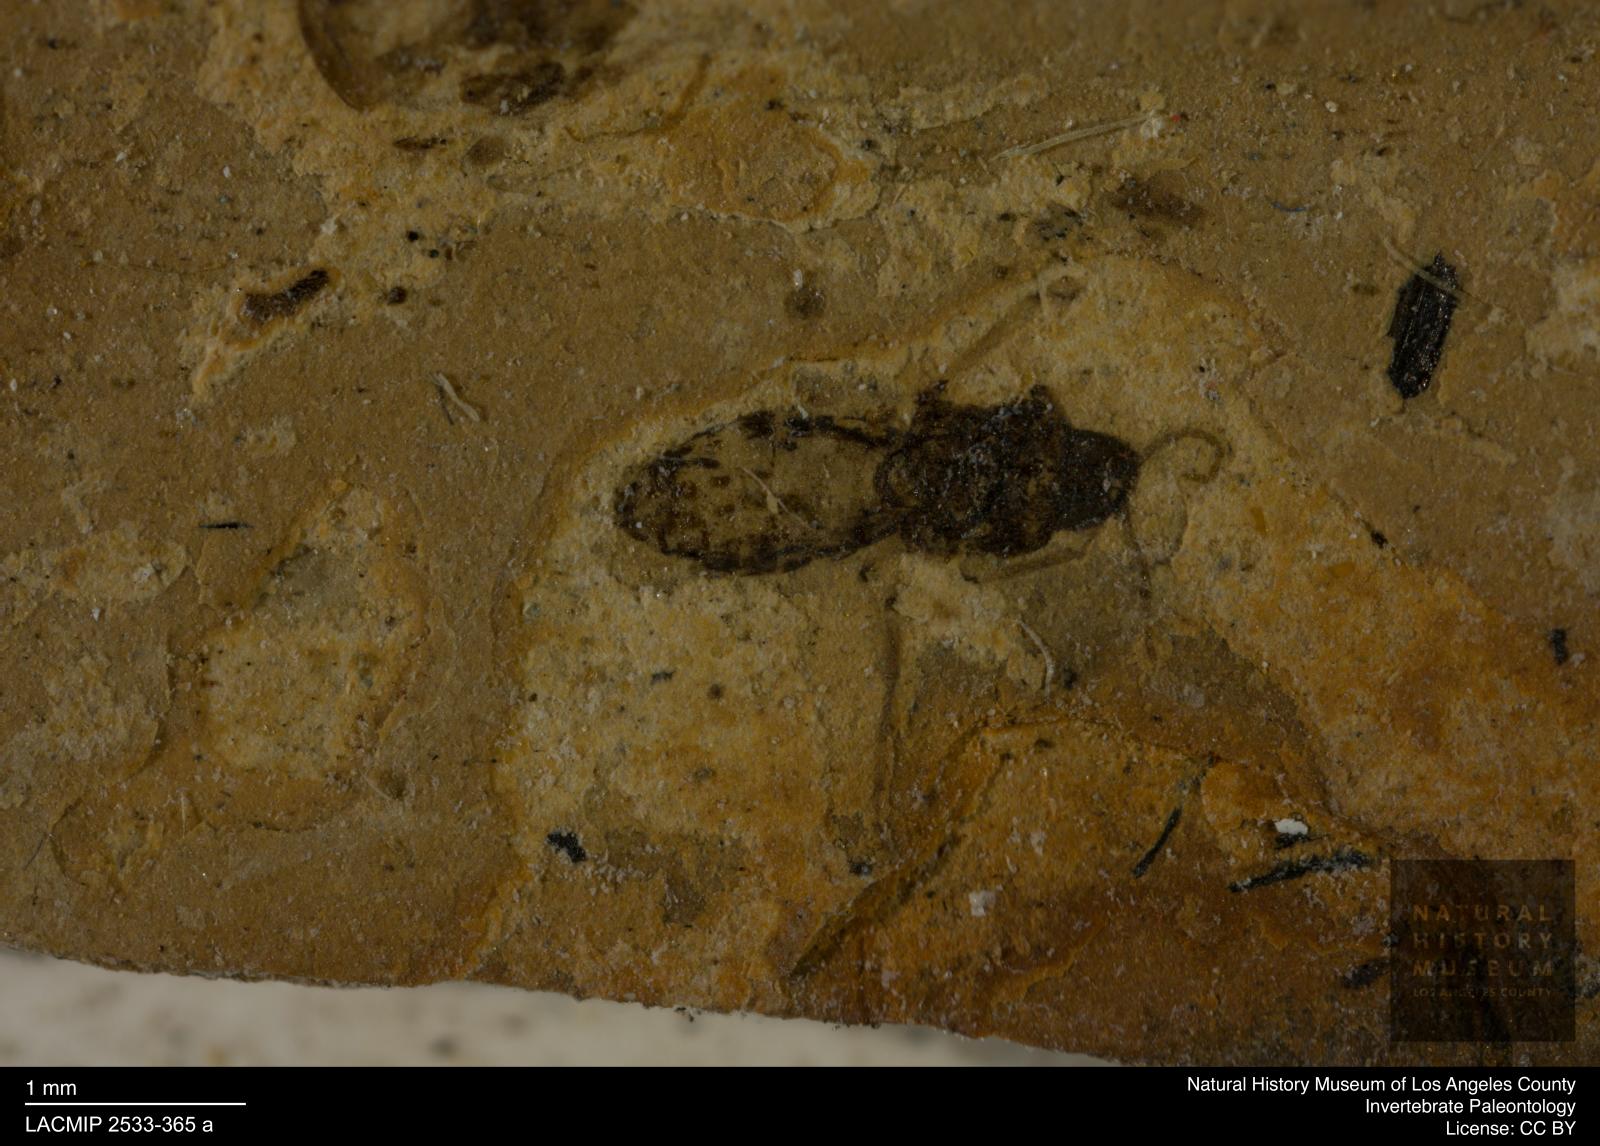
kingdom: Animalia
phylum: Arthropoda
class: Insecta
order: Diptera
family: Ceratopogonidae
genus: Culicoides
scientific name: Culicoides elongatulus
